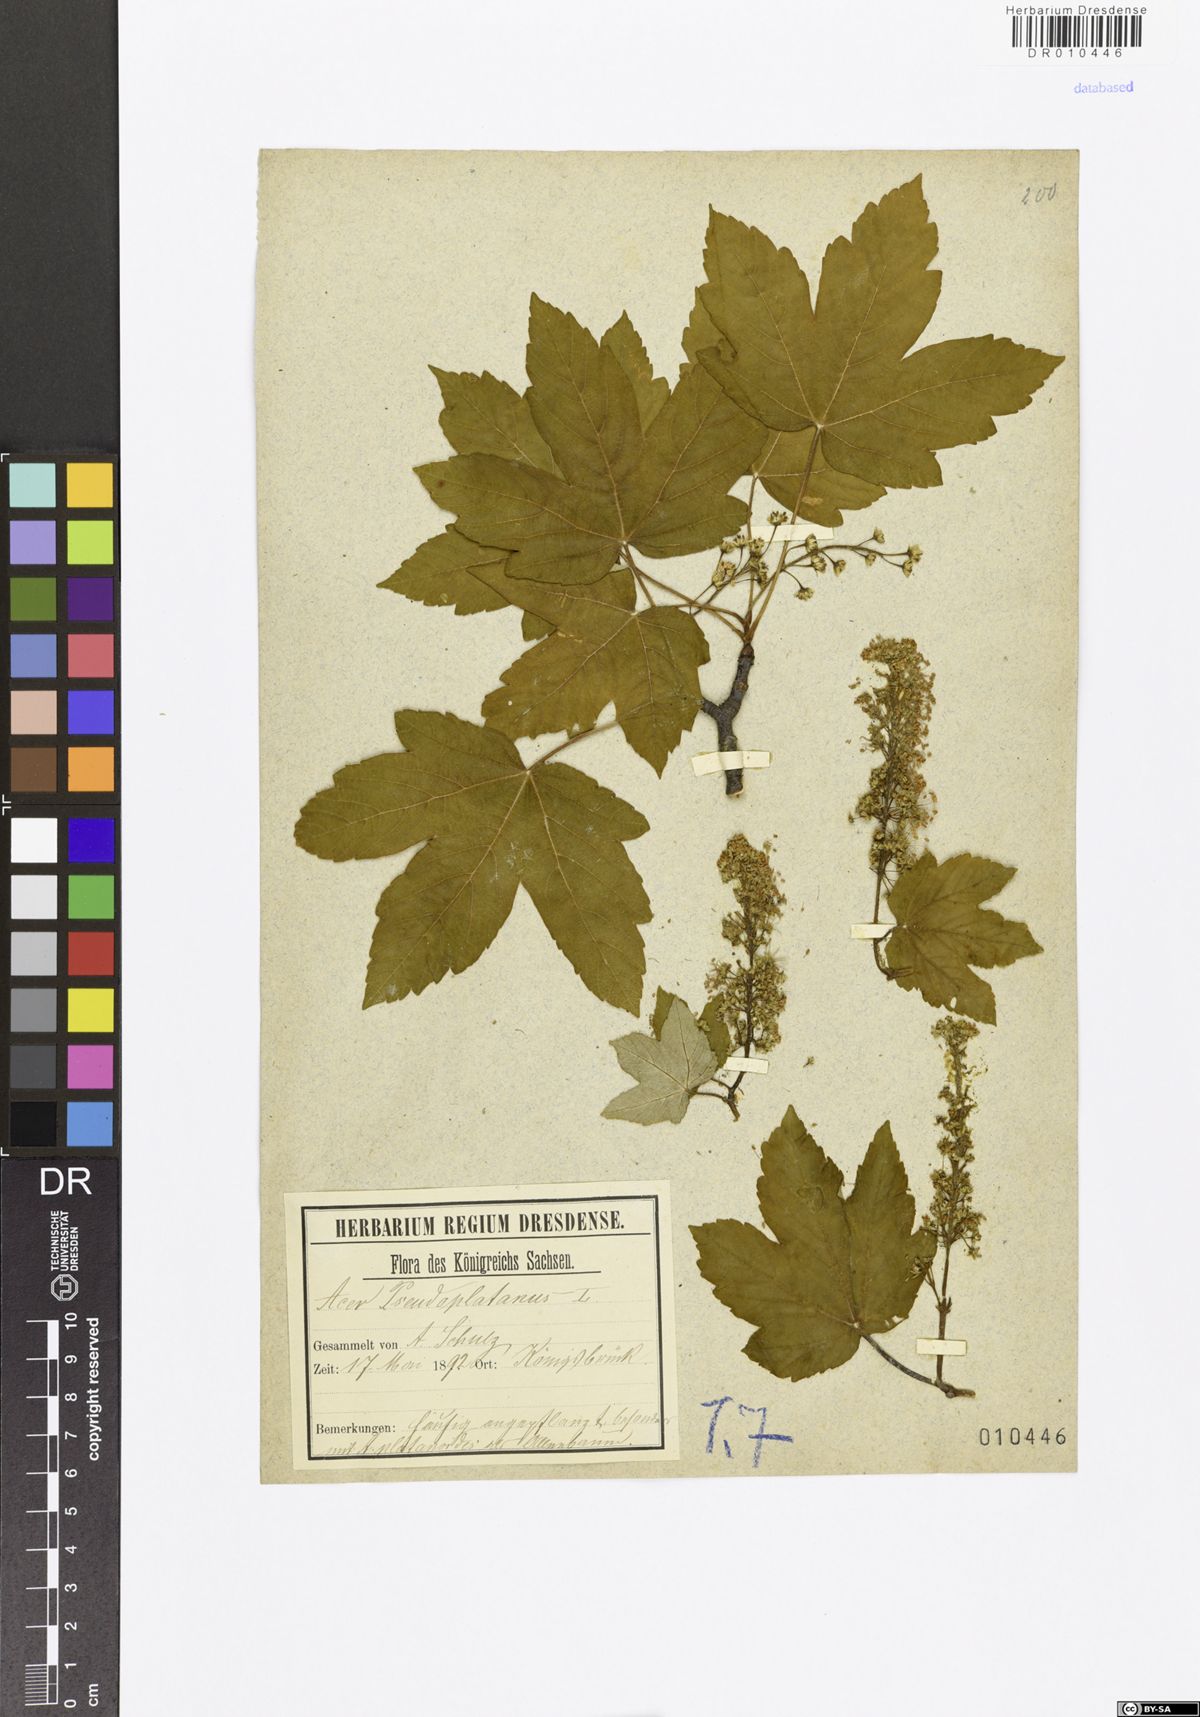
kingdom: Plantae
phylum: Tracheophyta
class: Magnoliopsida
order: Sapindales
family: Sapindaceae
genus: Acer
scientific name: Acer pseudoplatanus
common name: Sycamore
